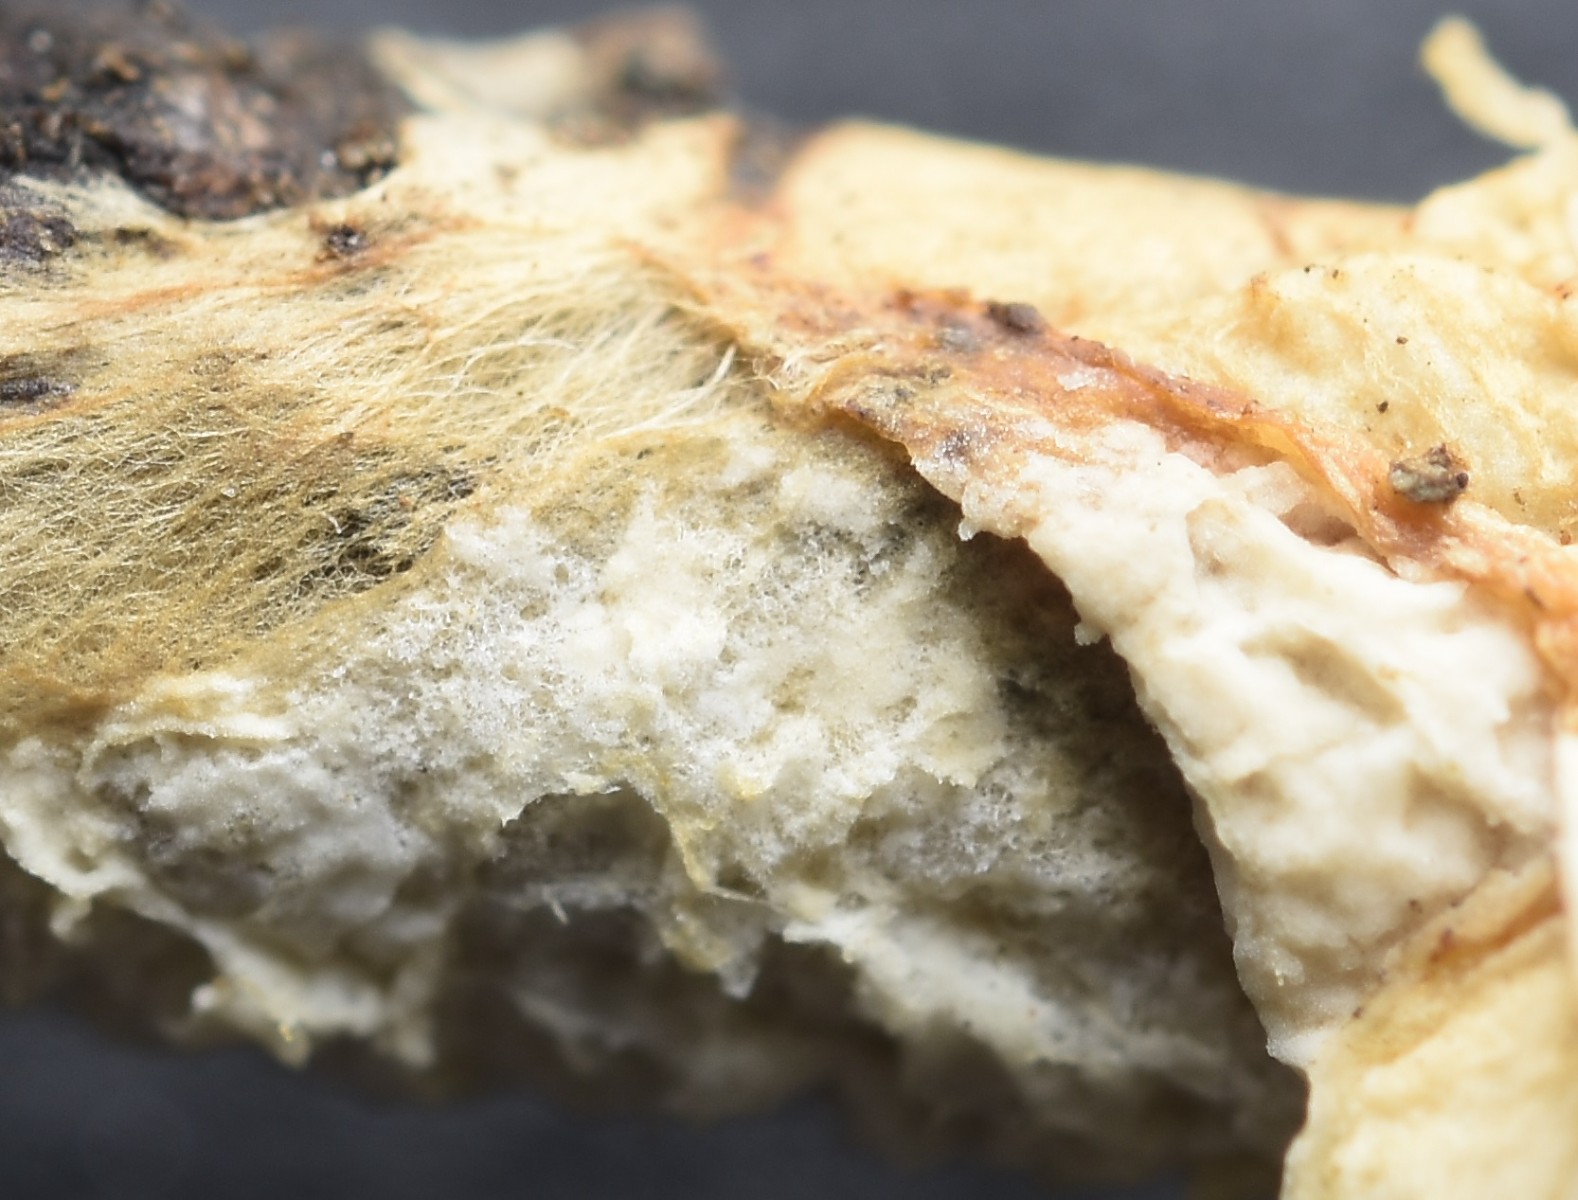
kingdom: Fungi
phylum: Basidiomycota
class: Agaricomycetes
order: Atheliales
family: Atheliaceae
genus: Leptosporomyces
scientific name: Leptosporomyces fuscostratus
